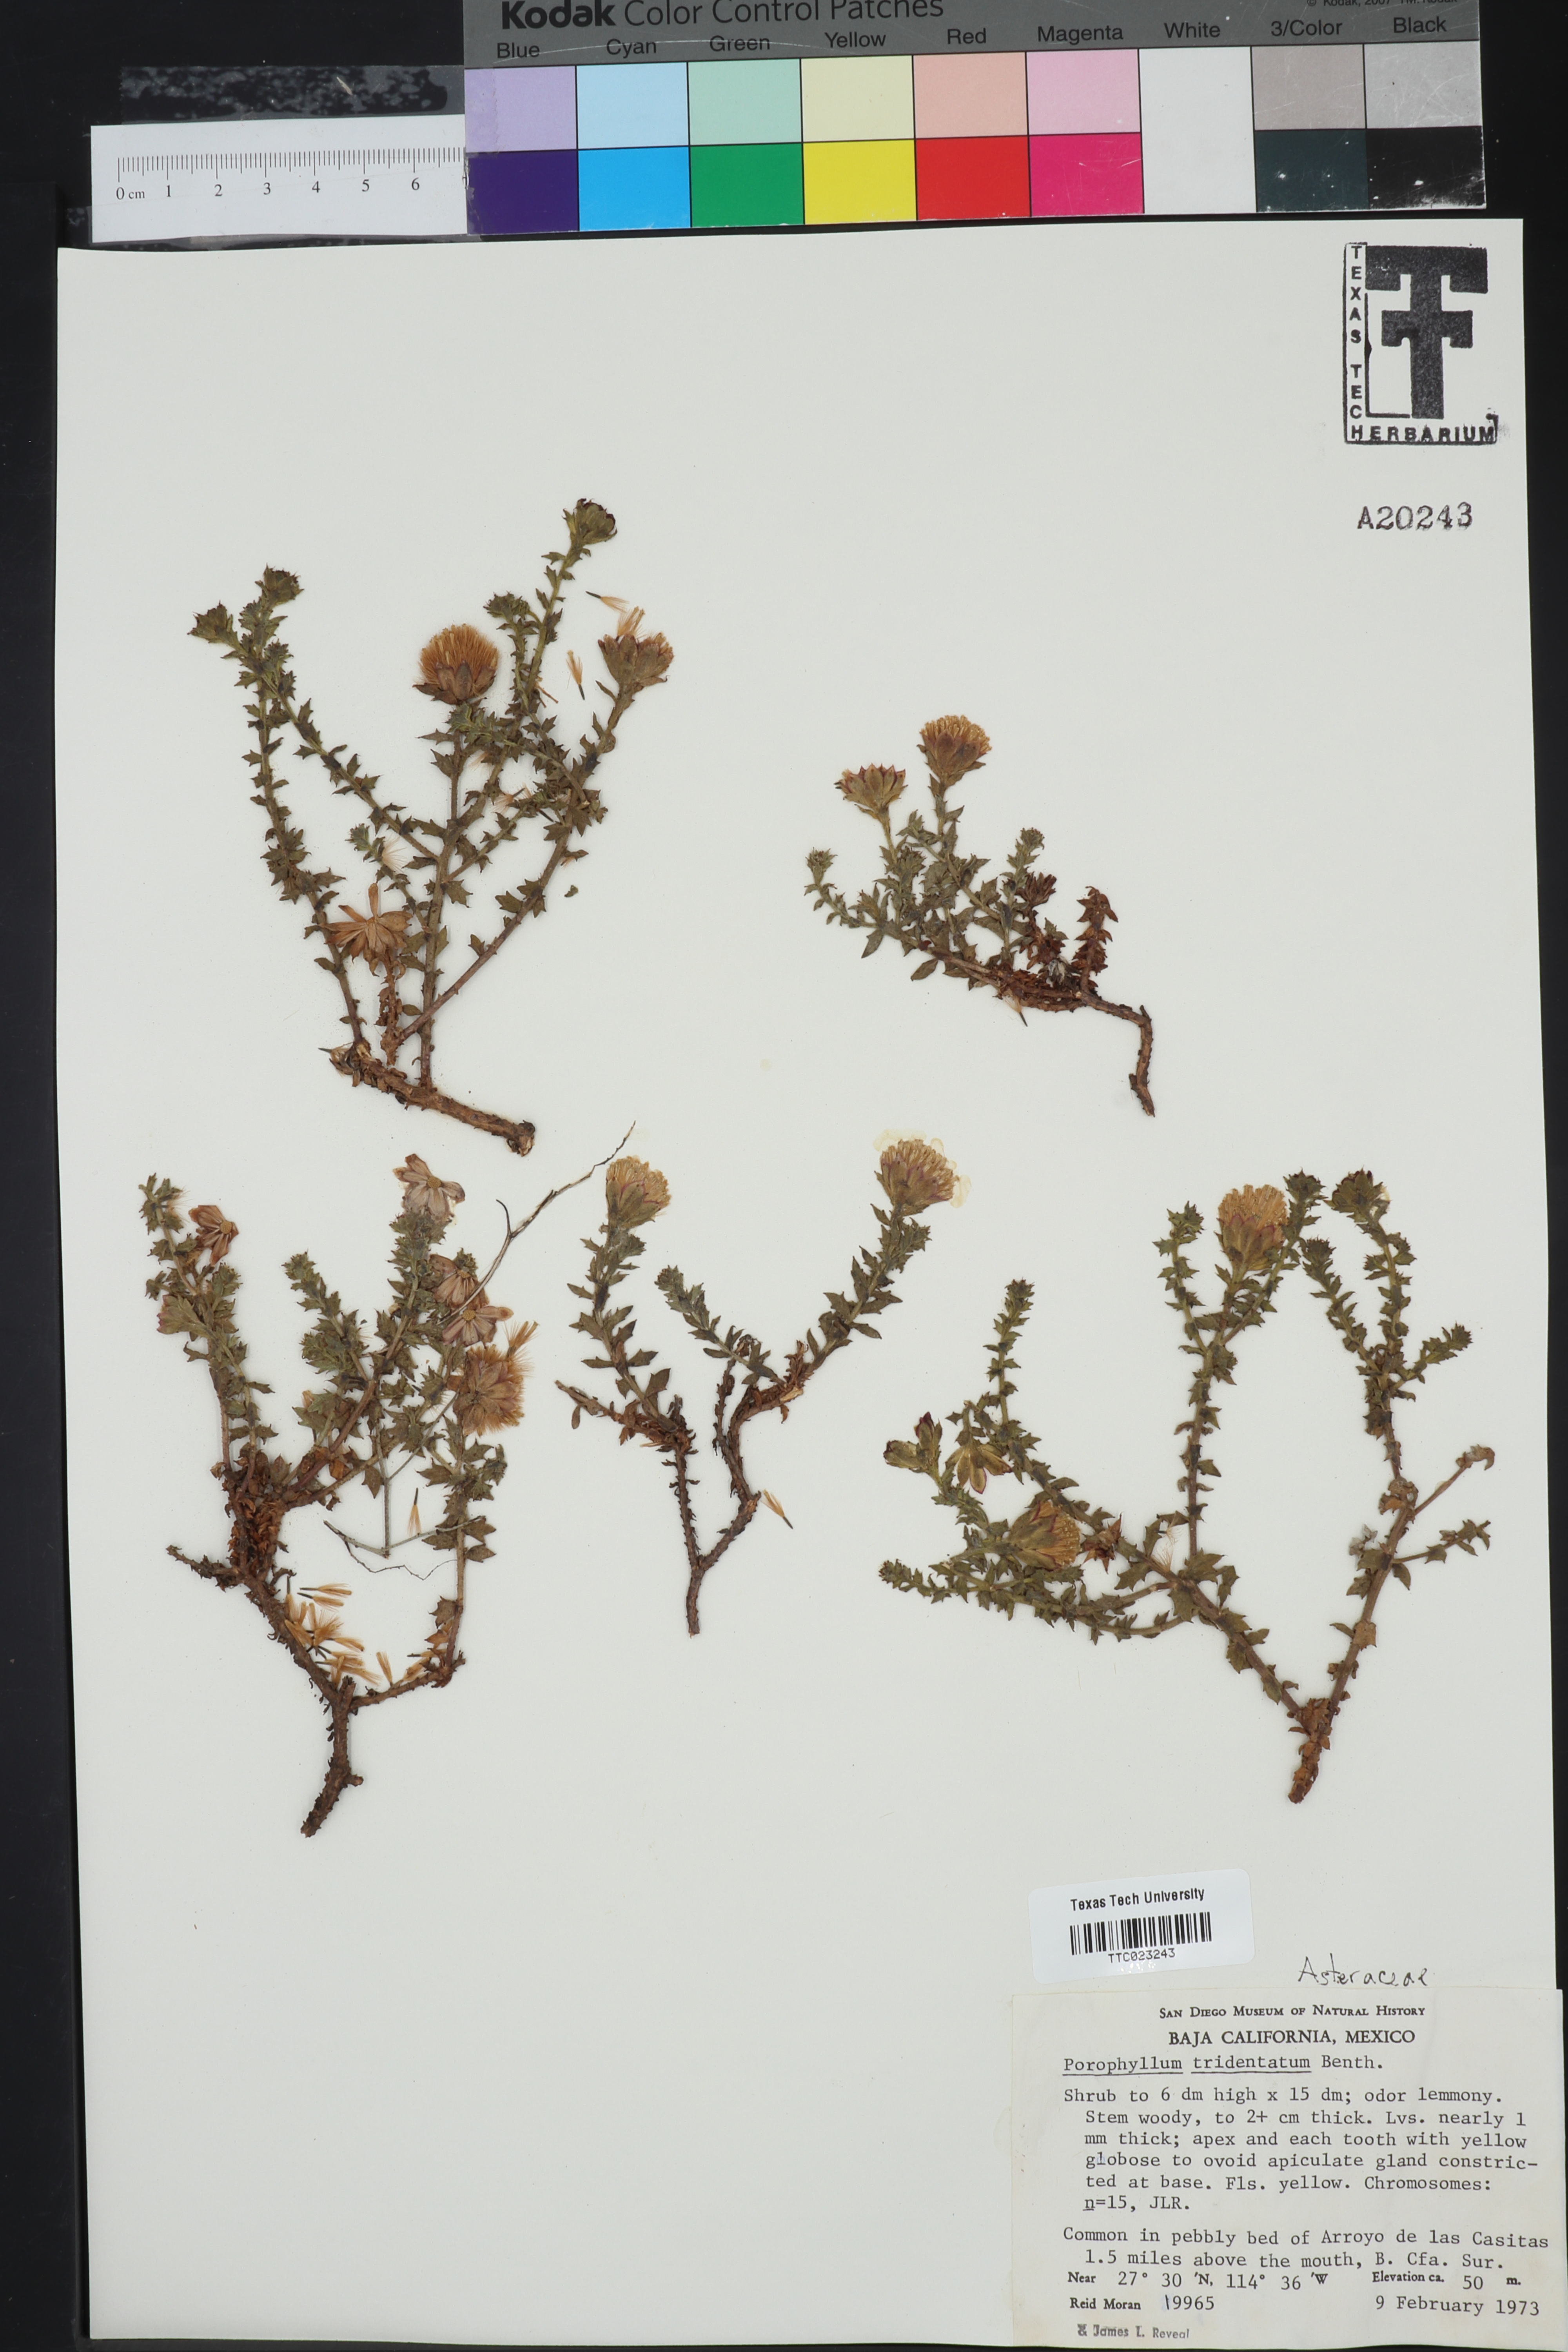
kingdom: Plantae
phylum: Tracheophyta
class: Magnoliopsida
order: Asterales
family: Asteraceae
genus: Bajacalia
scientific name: Bajacalia tridentata
